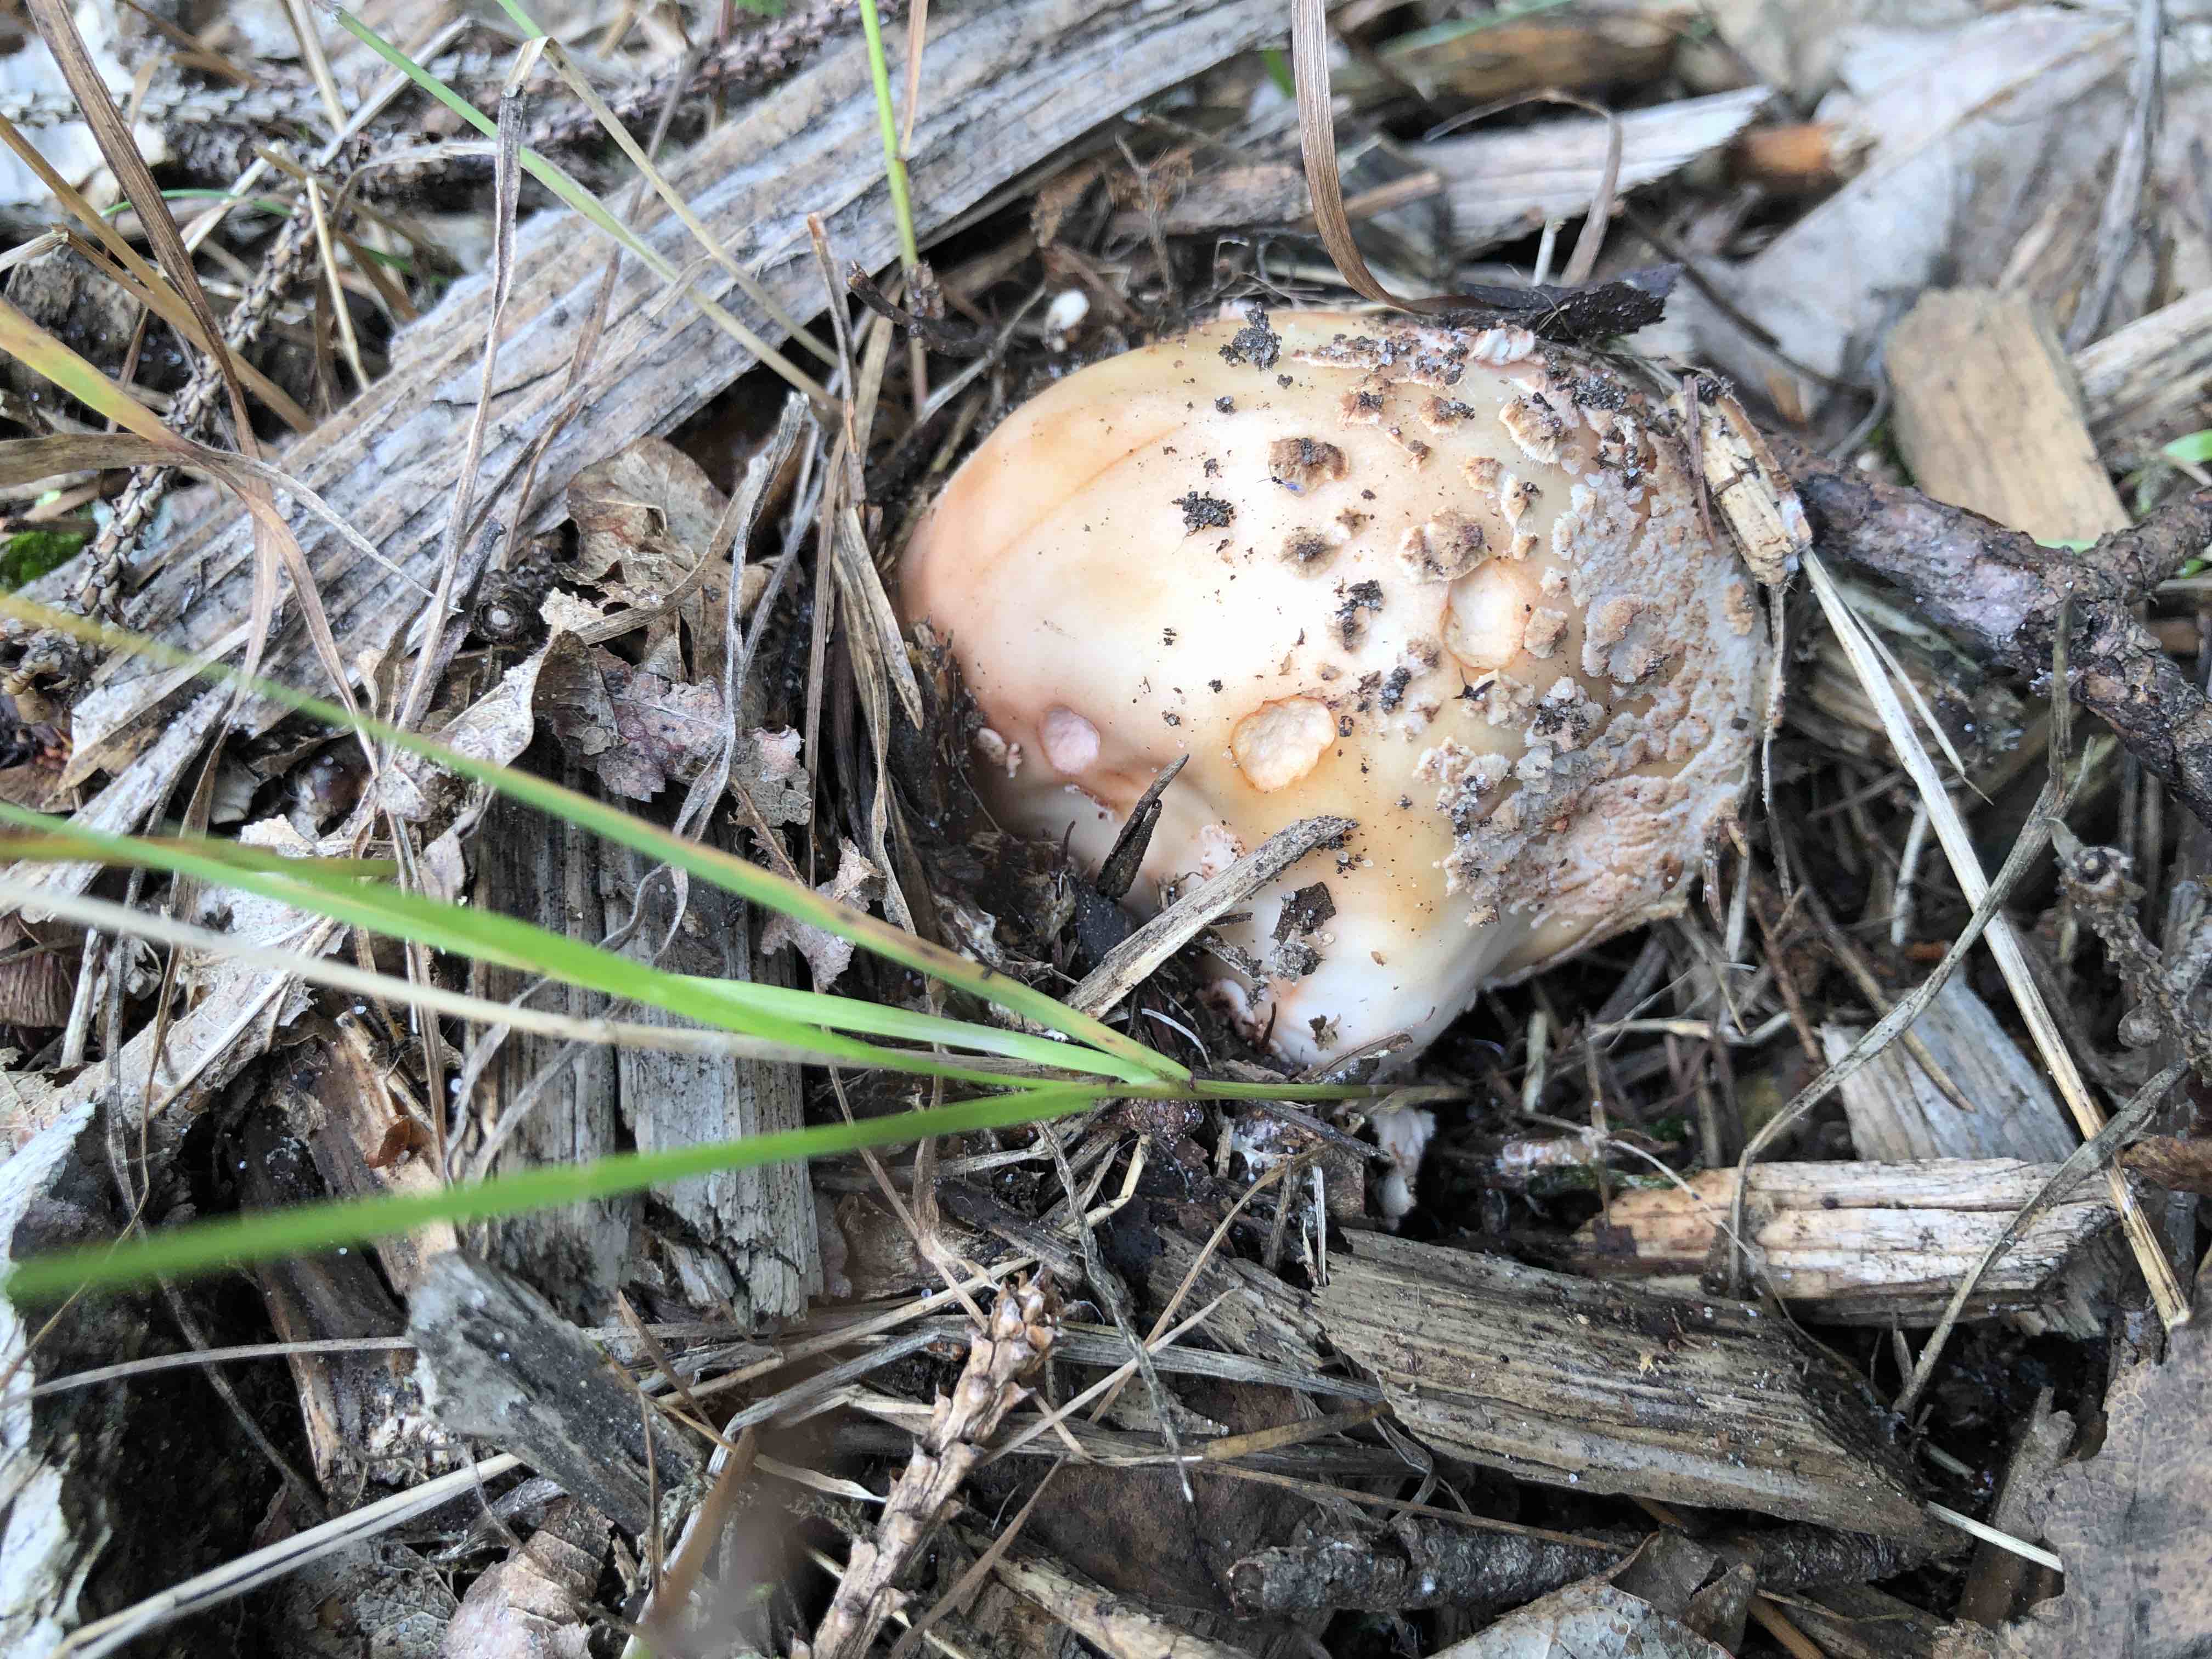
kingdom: Fungi
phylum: Basidiomycota
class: Agaricomycetes
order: Agaricales
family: Amanitaceae
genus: Amanita
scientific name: Amanita rubescens
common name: rødmende fluesvamp
